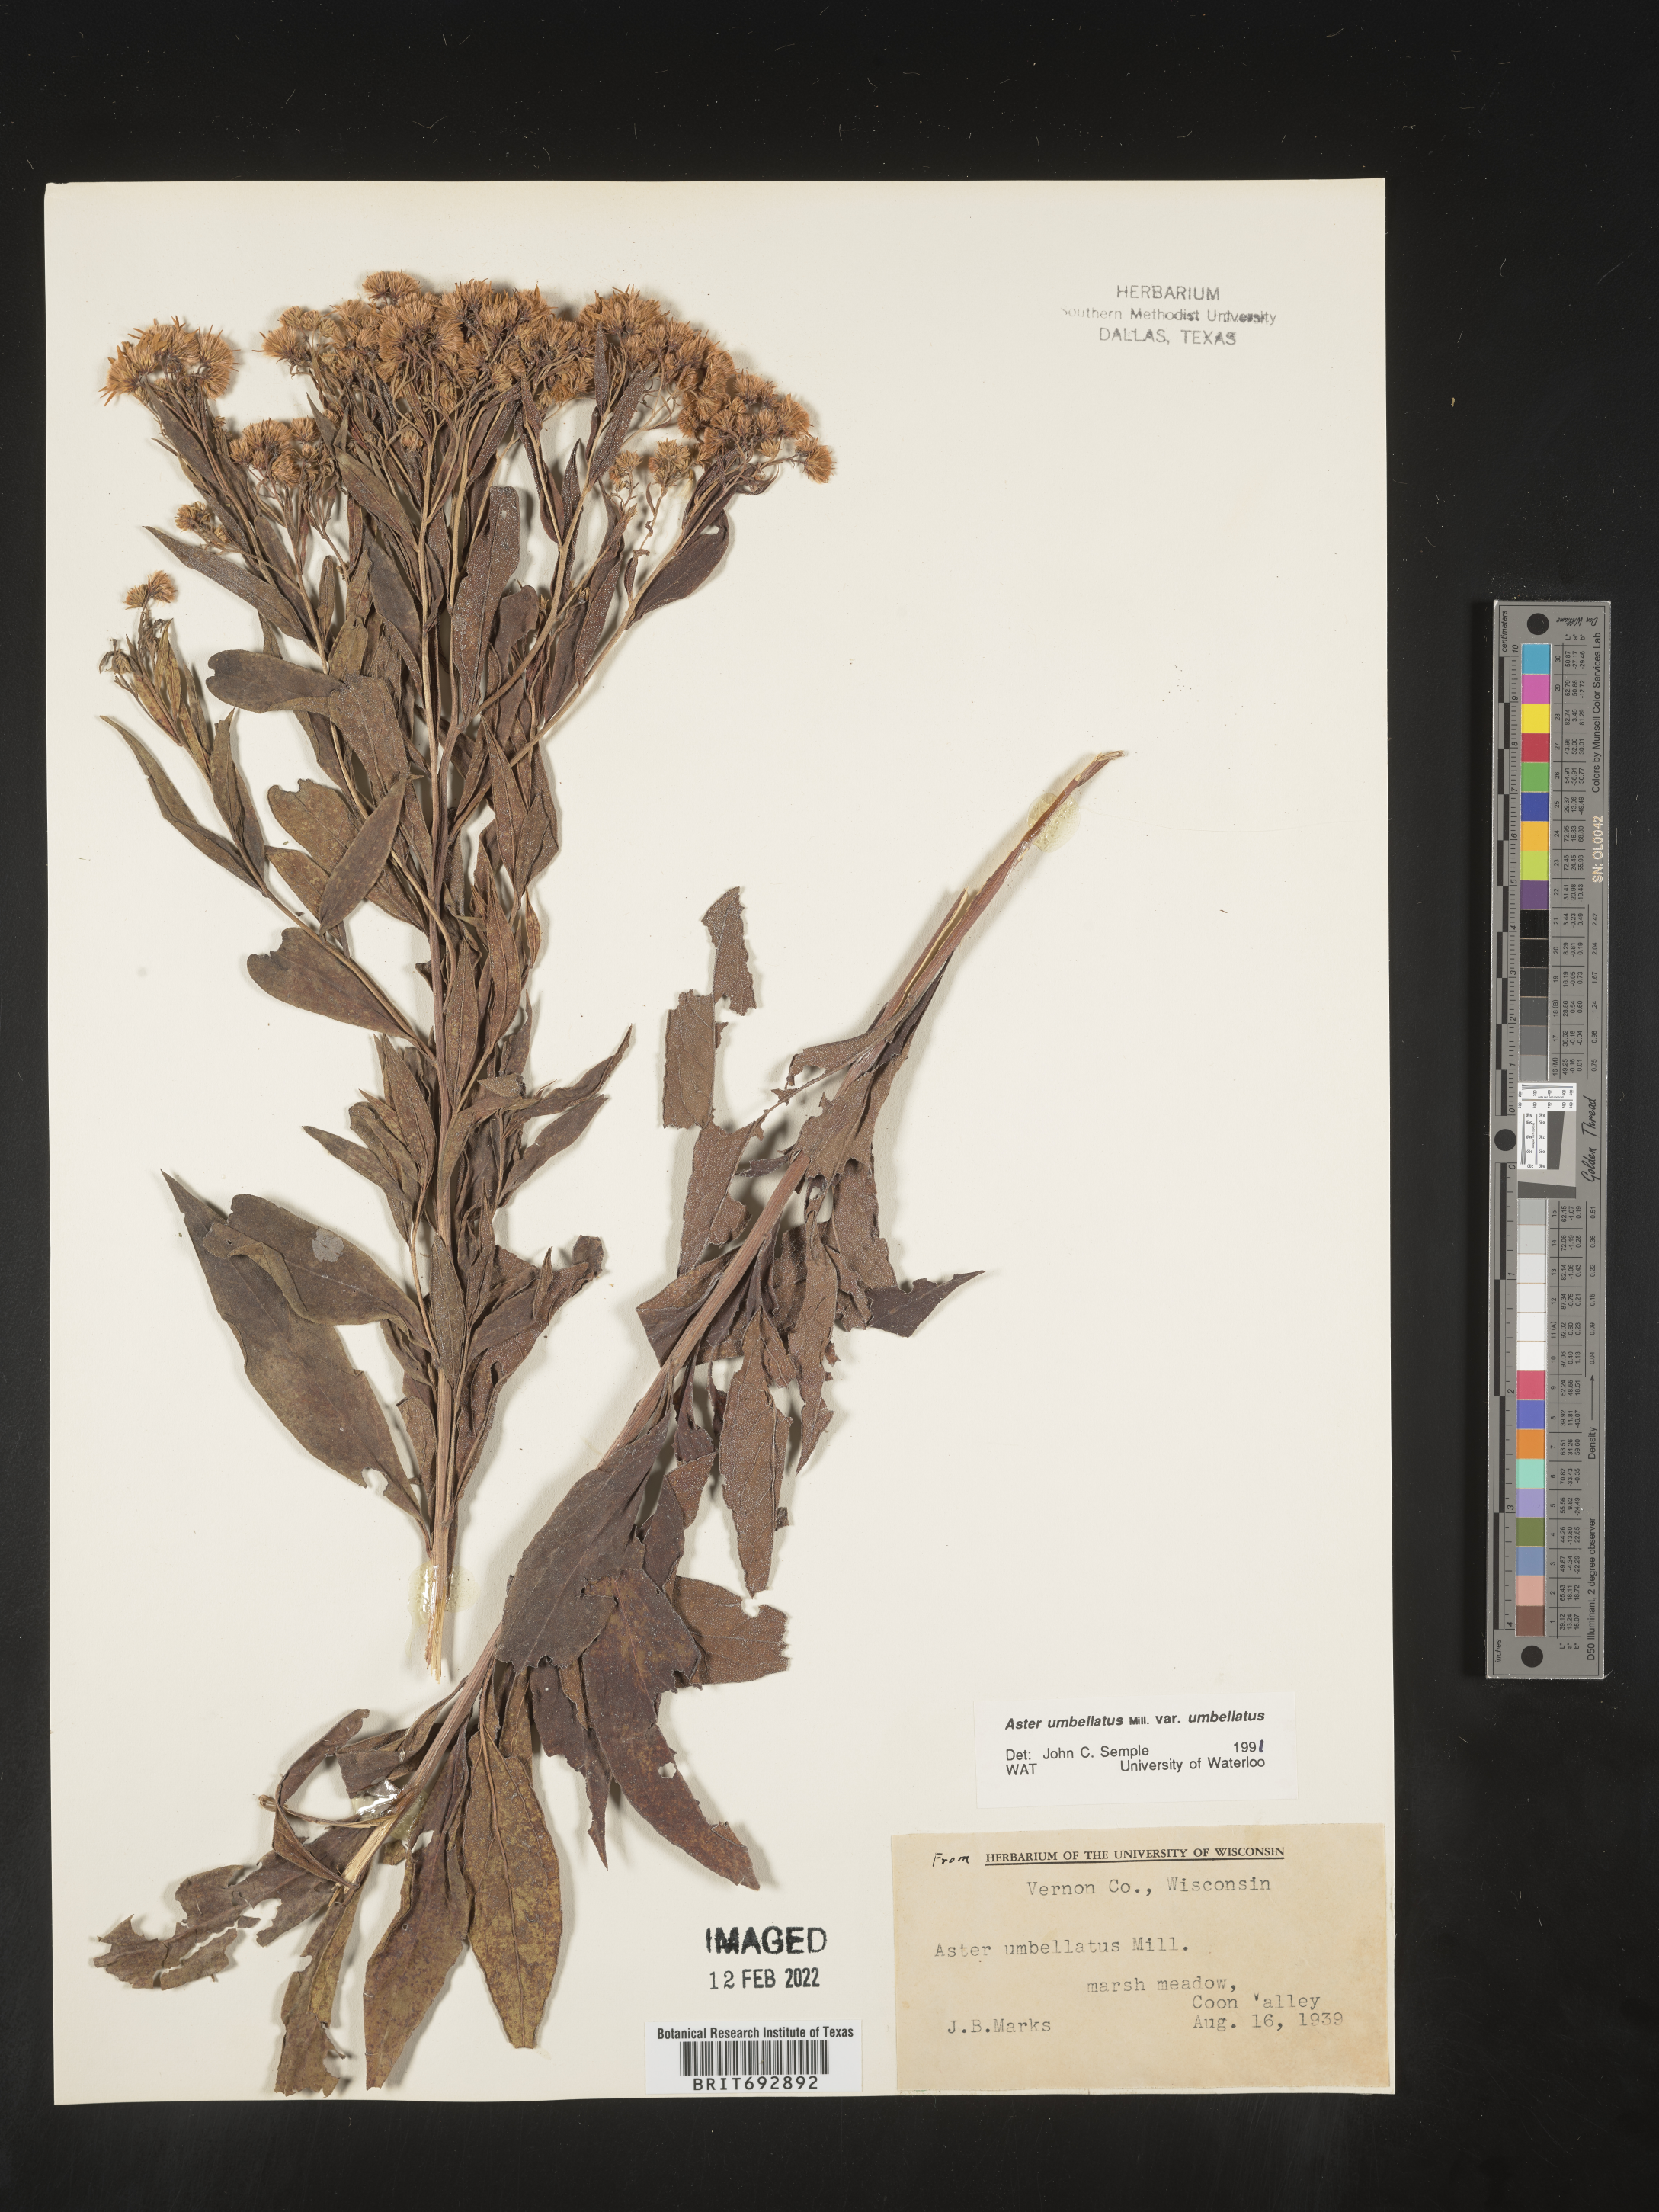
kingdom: Plantae
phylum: Tracheophyta
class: Magnoliopsida
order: Asterales
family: Asteraceae
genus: Doellingeria
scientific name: Doellingeria umbellata
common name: Flat-top white aster
